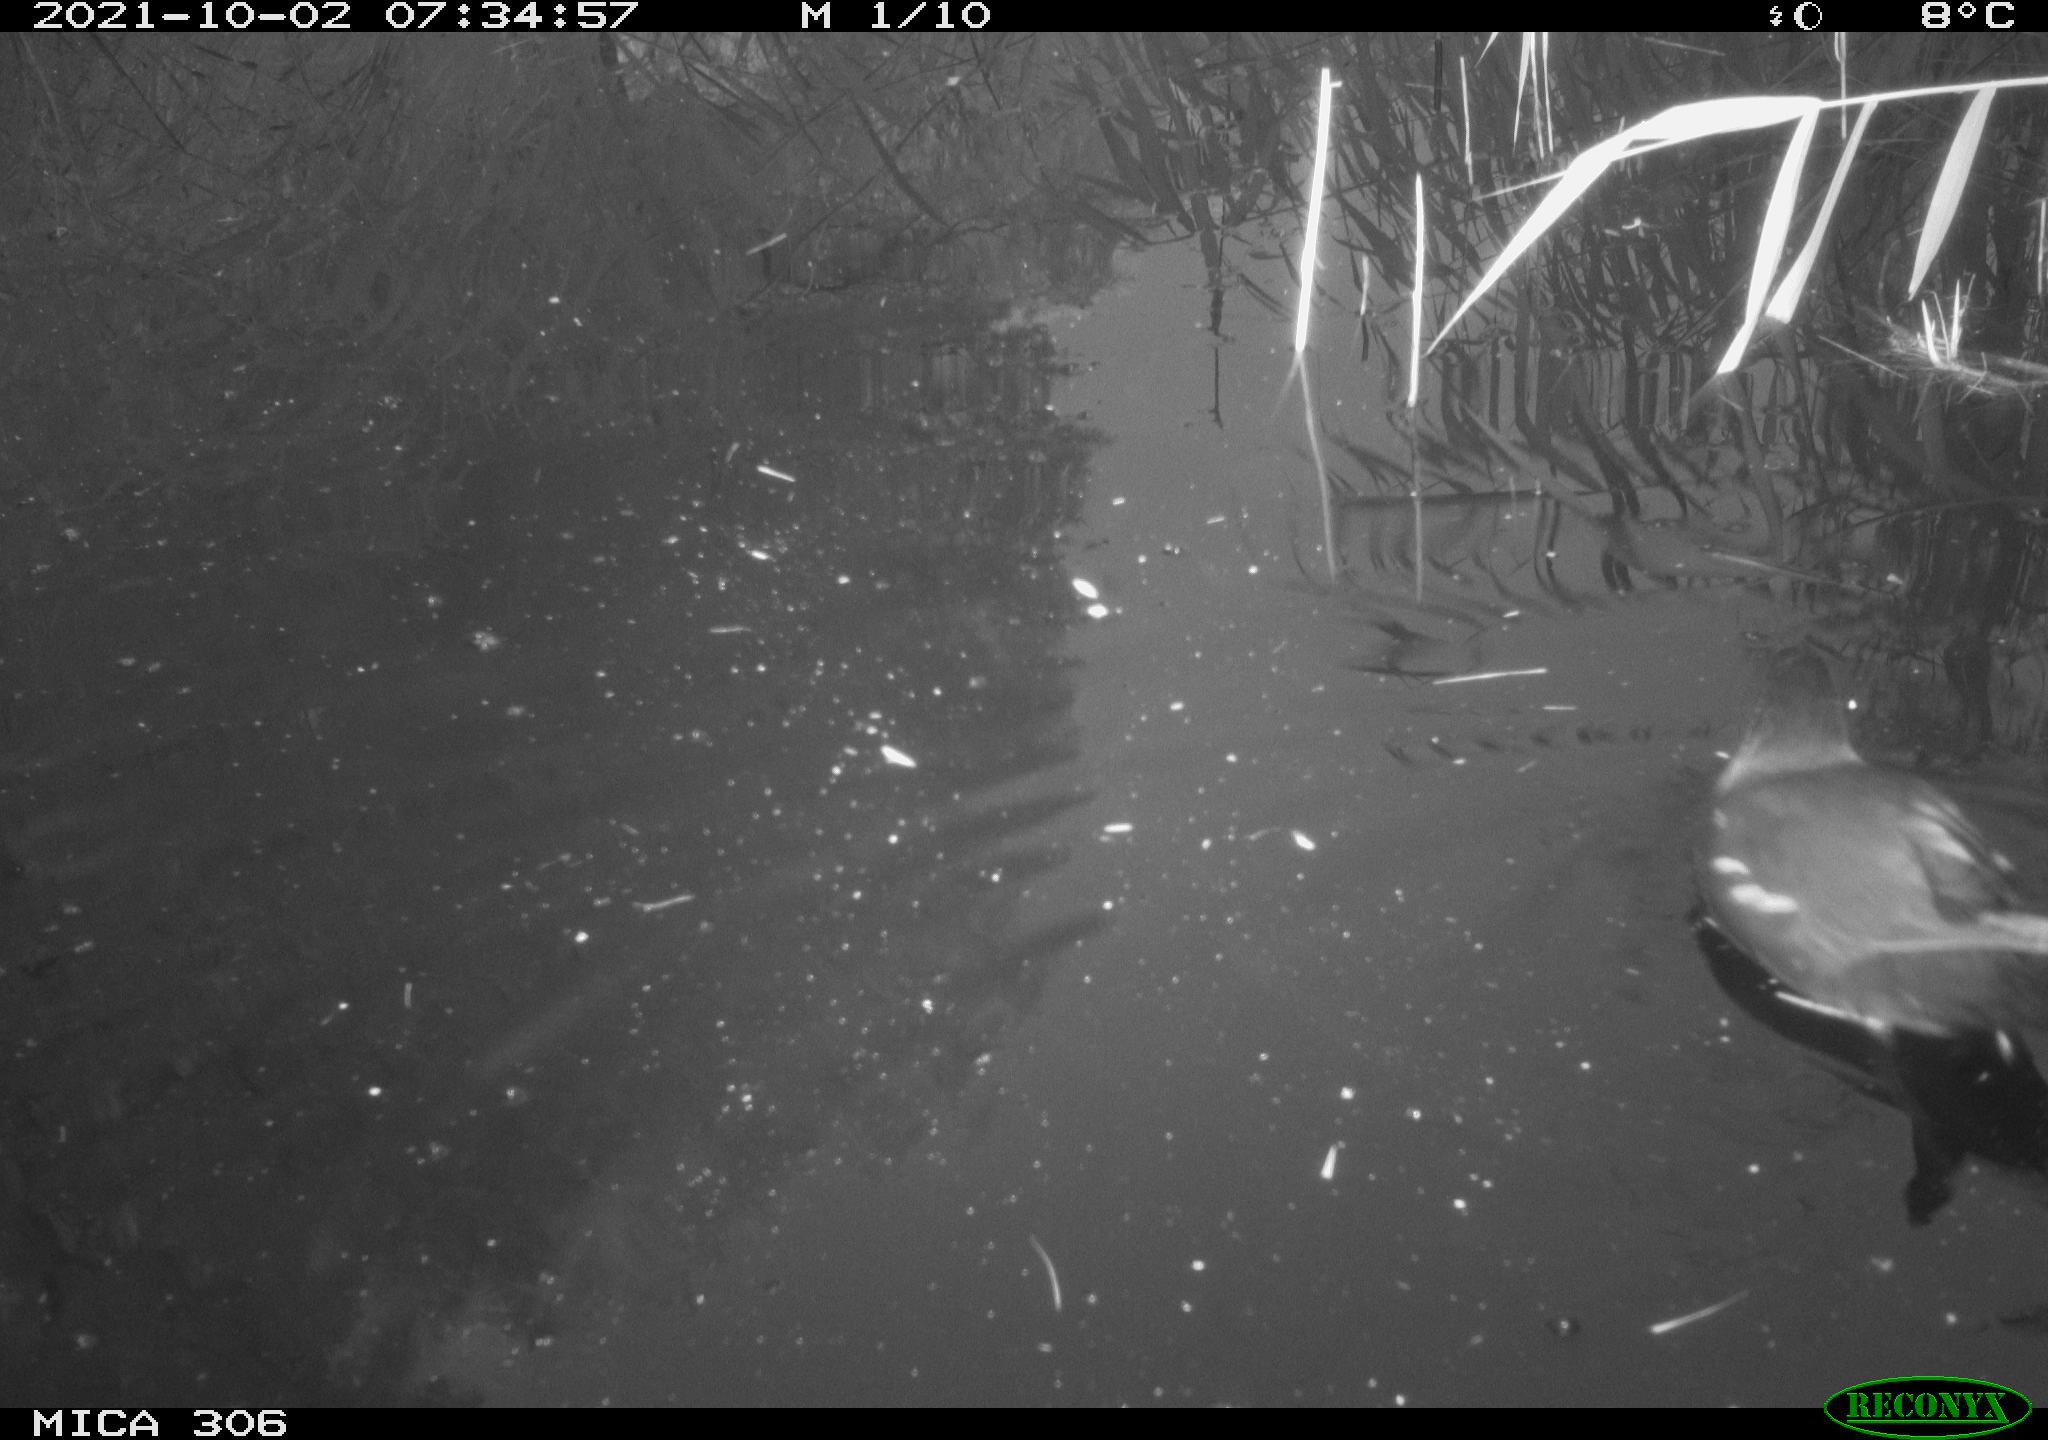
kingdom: Animalia
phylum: Chordata
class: Aves
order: Gruiformes
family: Rallidae
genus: Gallinula
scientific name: Gallinula chloropus
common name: Common moorhen
